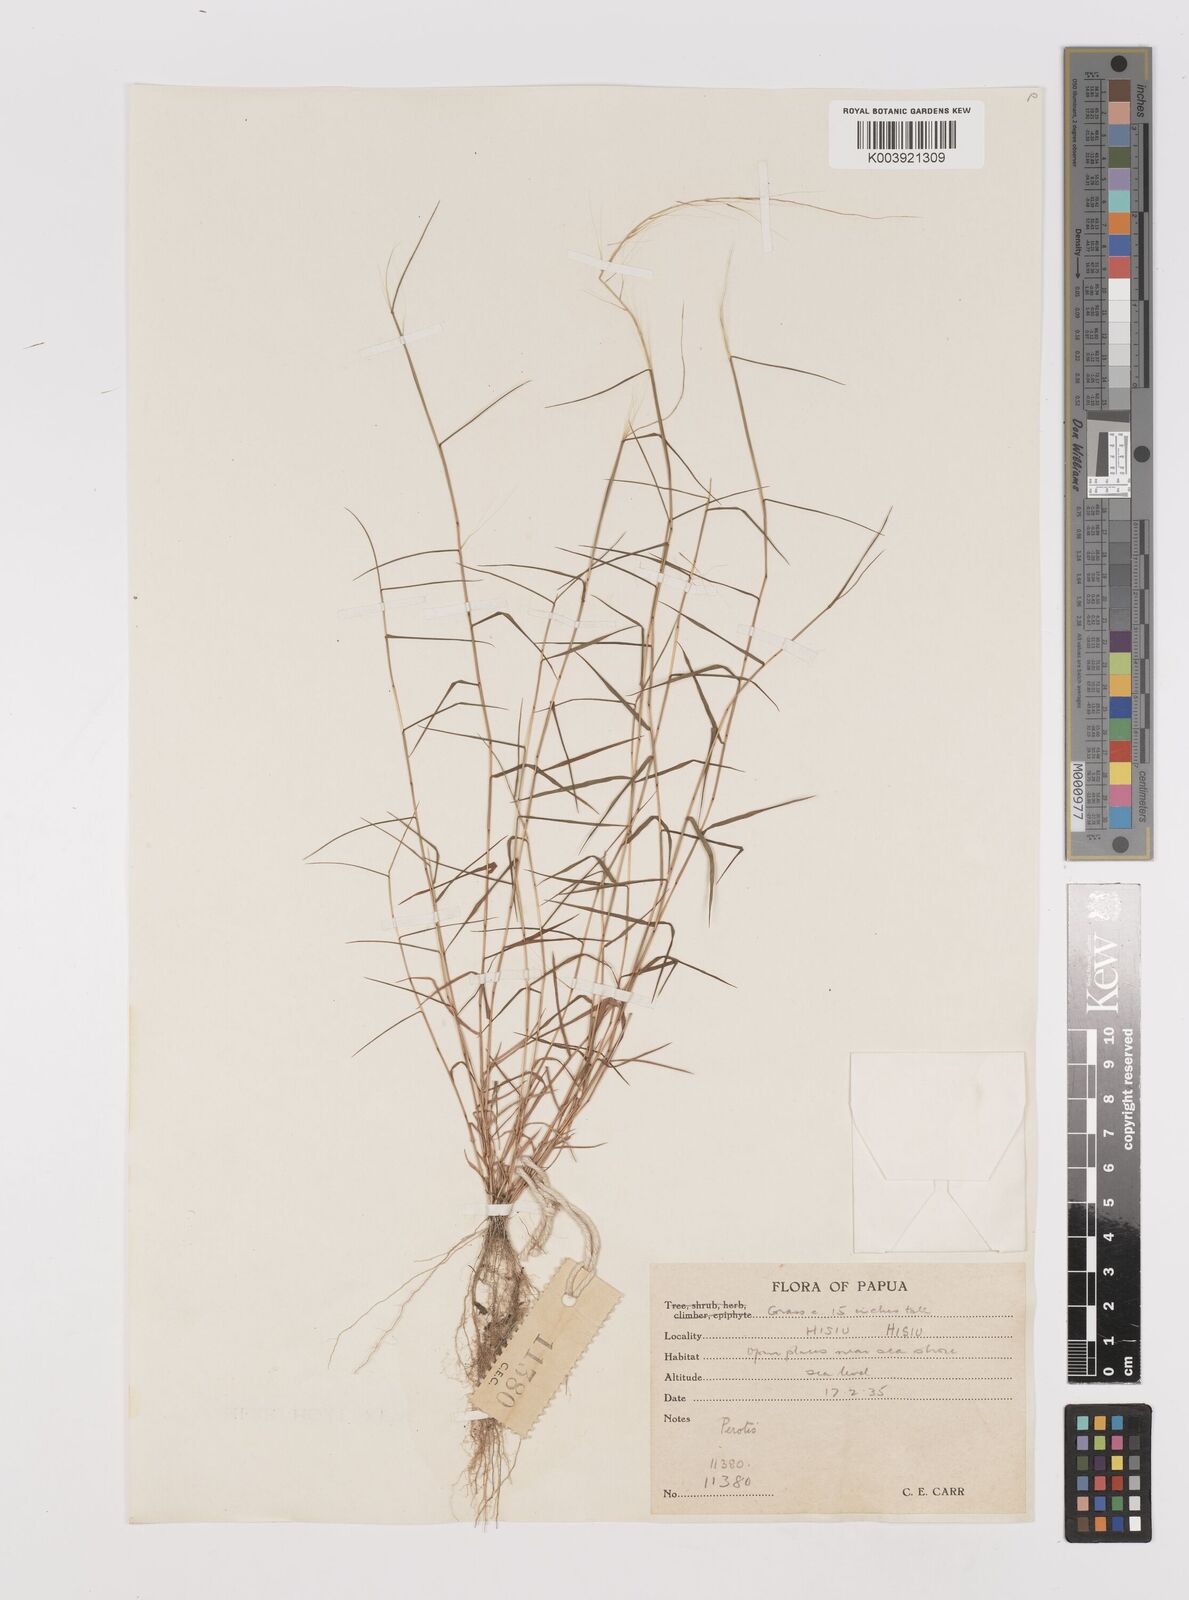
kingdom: Plantae
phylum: Tracheophyta
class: Liliopsida
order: Poales
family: Poaceae
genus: Perotis
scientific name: Perotis rara
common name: Comet grass
